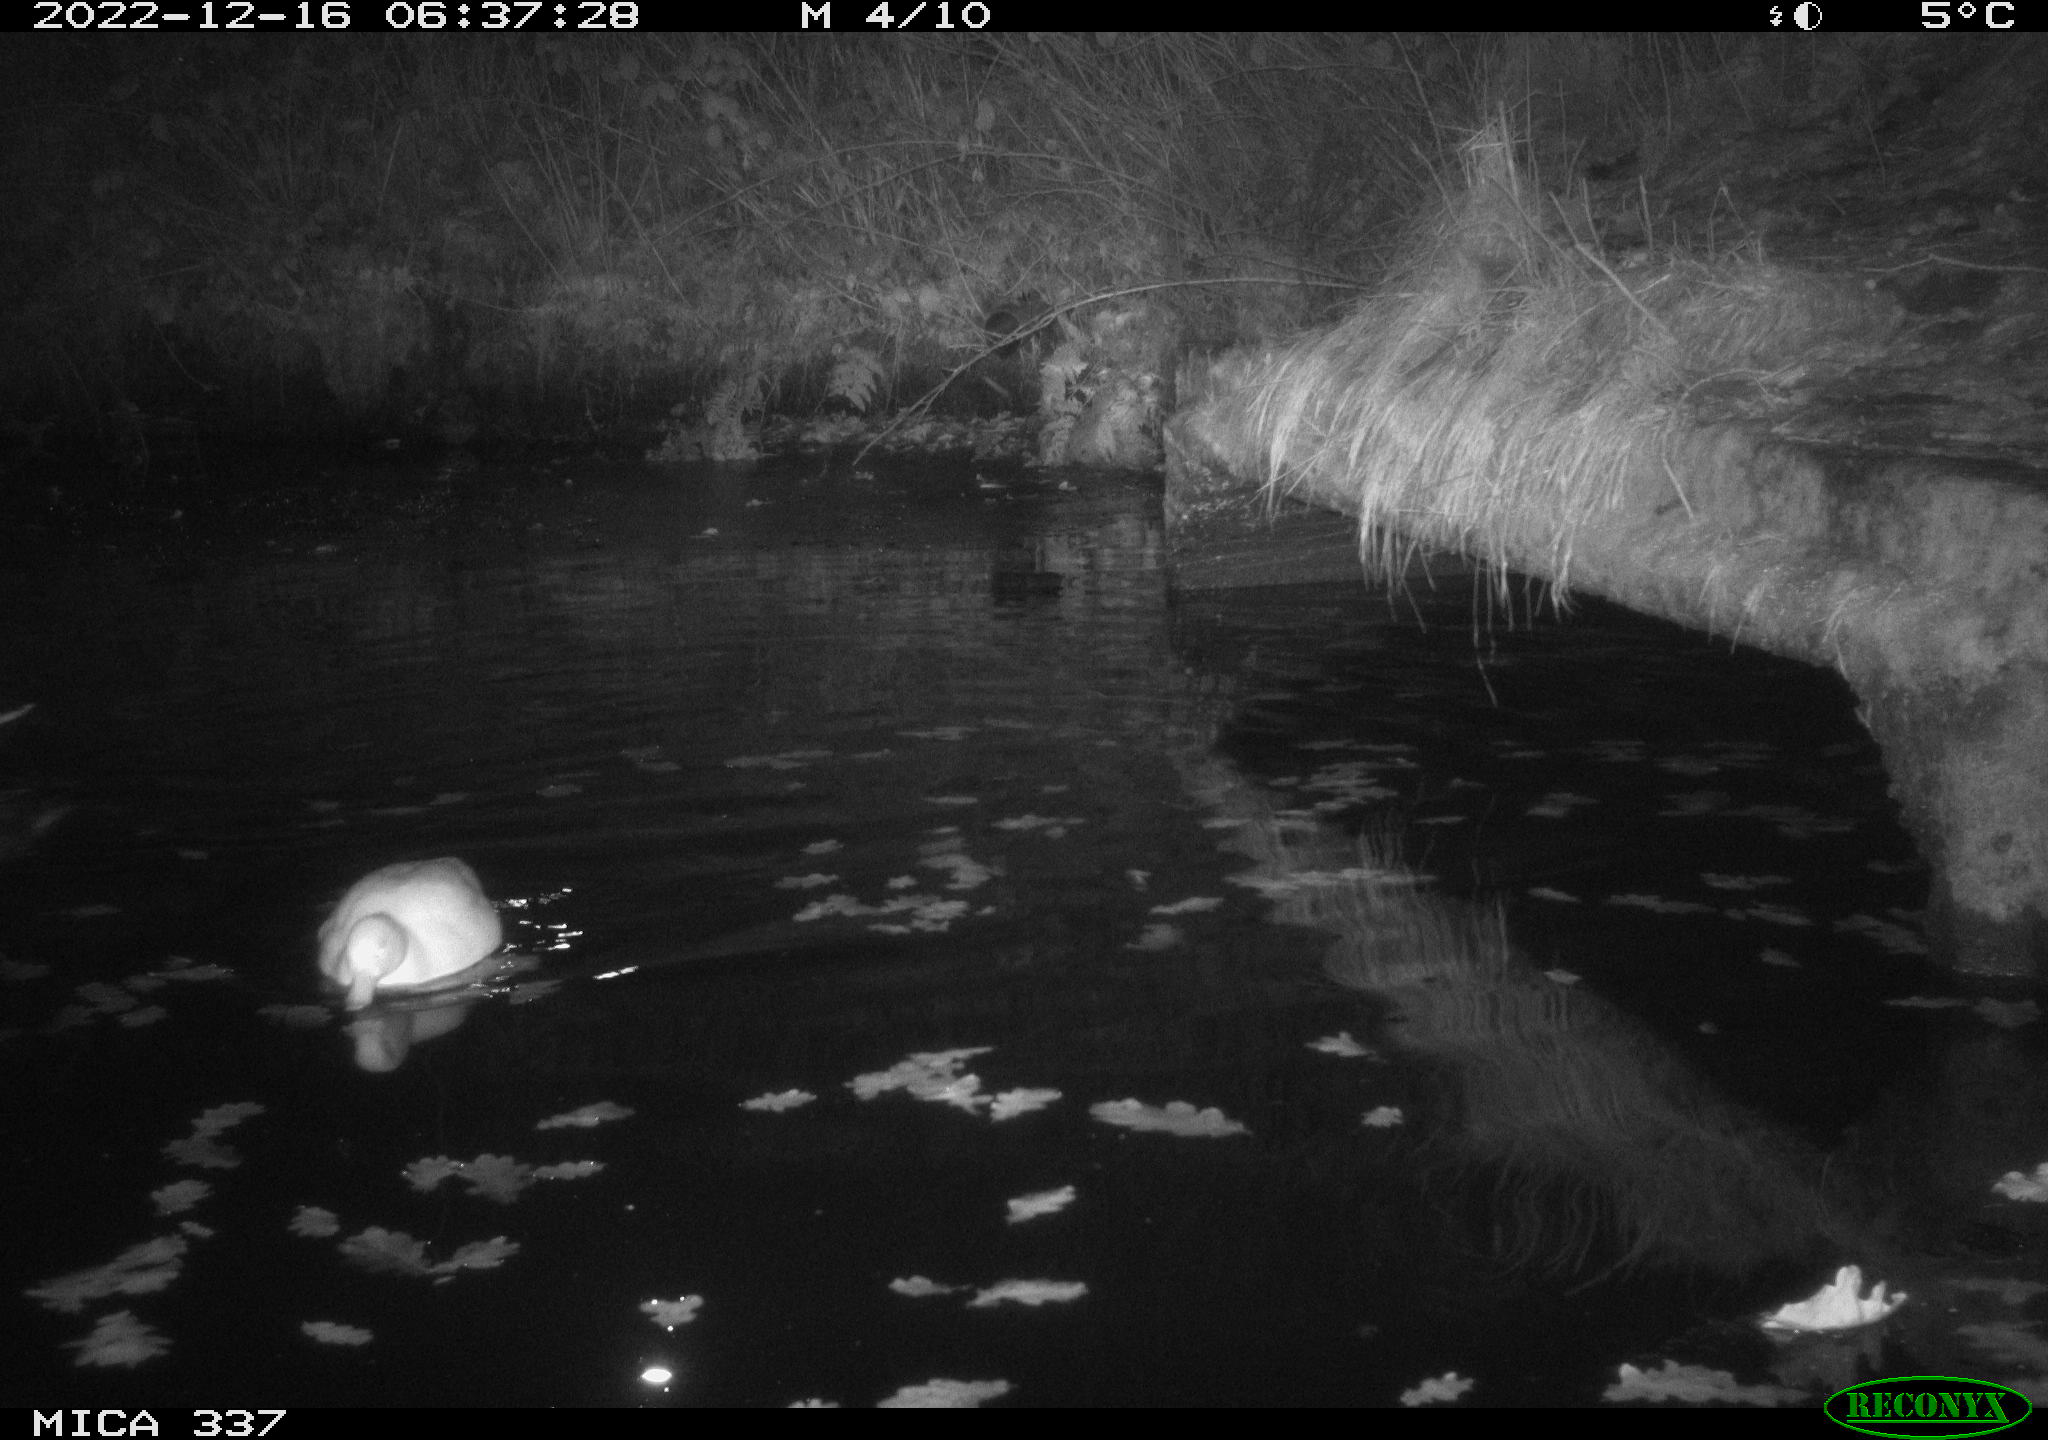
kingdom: Animalia
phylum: Chordata
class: Aves
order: Pelecaniformes
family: Ardeidae
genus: Ardea
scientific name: Ardea cinerea
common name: Grey heron
